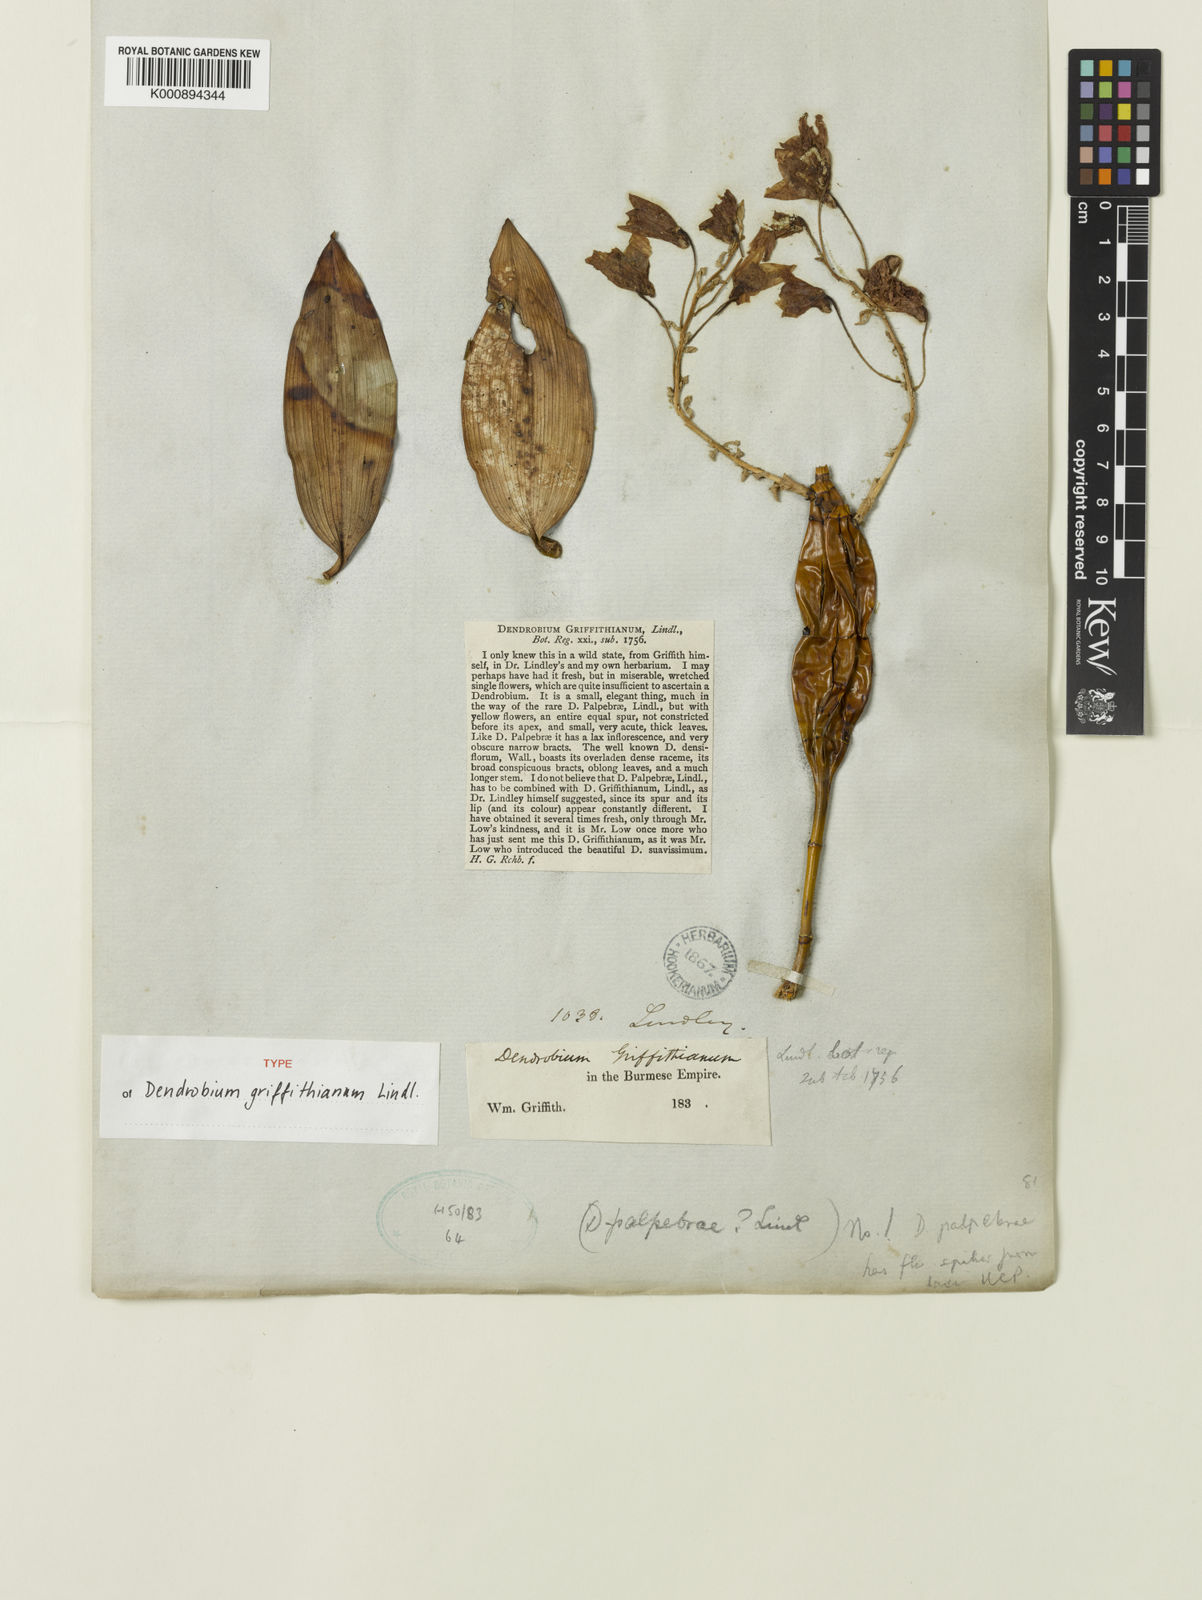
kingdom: Plantae
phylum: Tracheophyta
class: Liliopsida
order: Asparagales
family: Orchidaceae
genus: Dendrobium
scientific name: Dendrobium griffithianum
